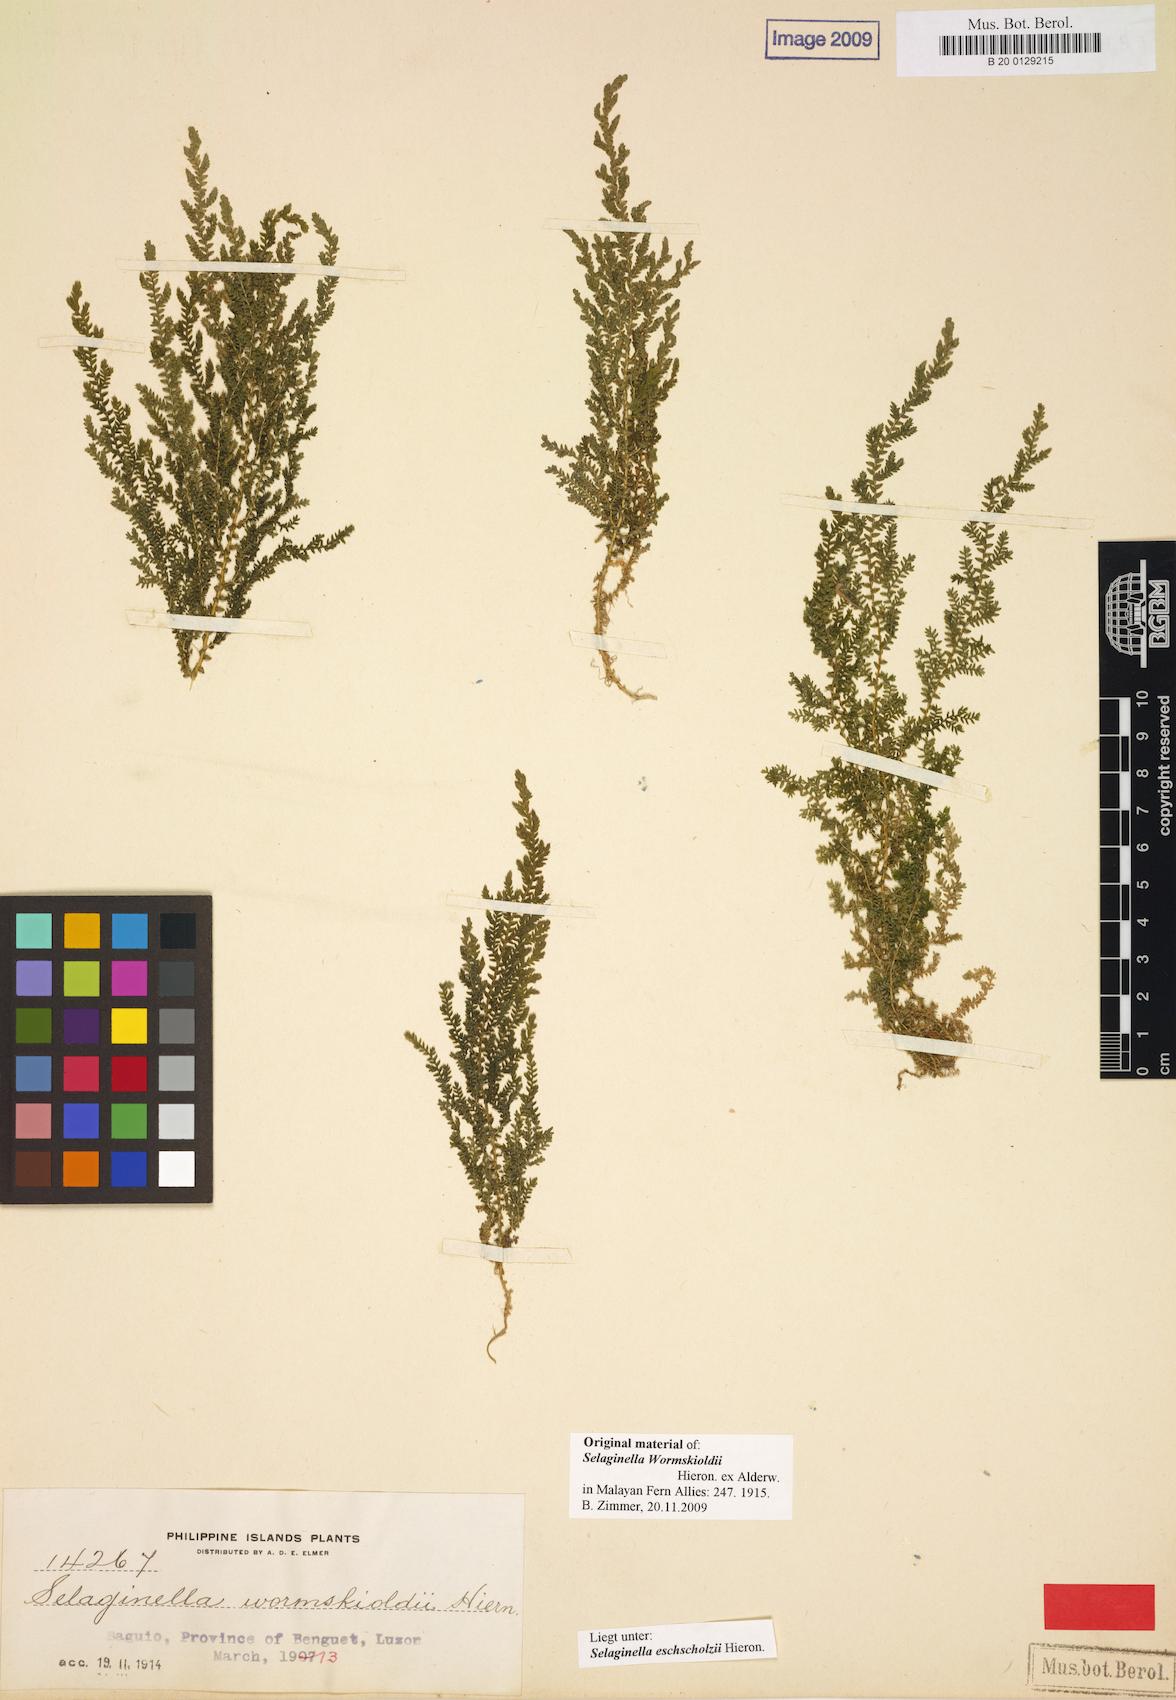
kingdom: Plantae
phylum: Tracheophyta
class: Lycopodiopsida
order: Selaginellales
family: Selaginellaceae
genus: Selaginella
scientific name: Selaginella eschscholzii
